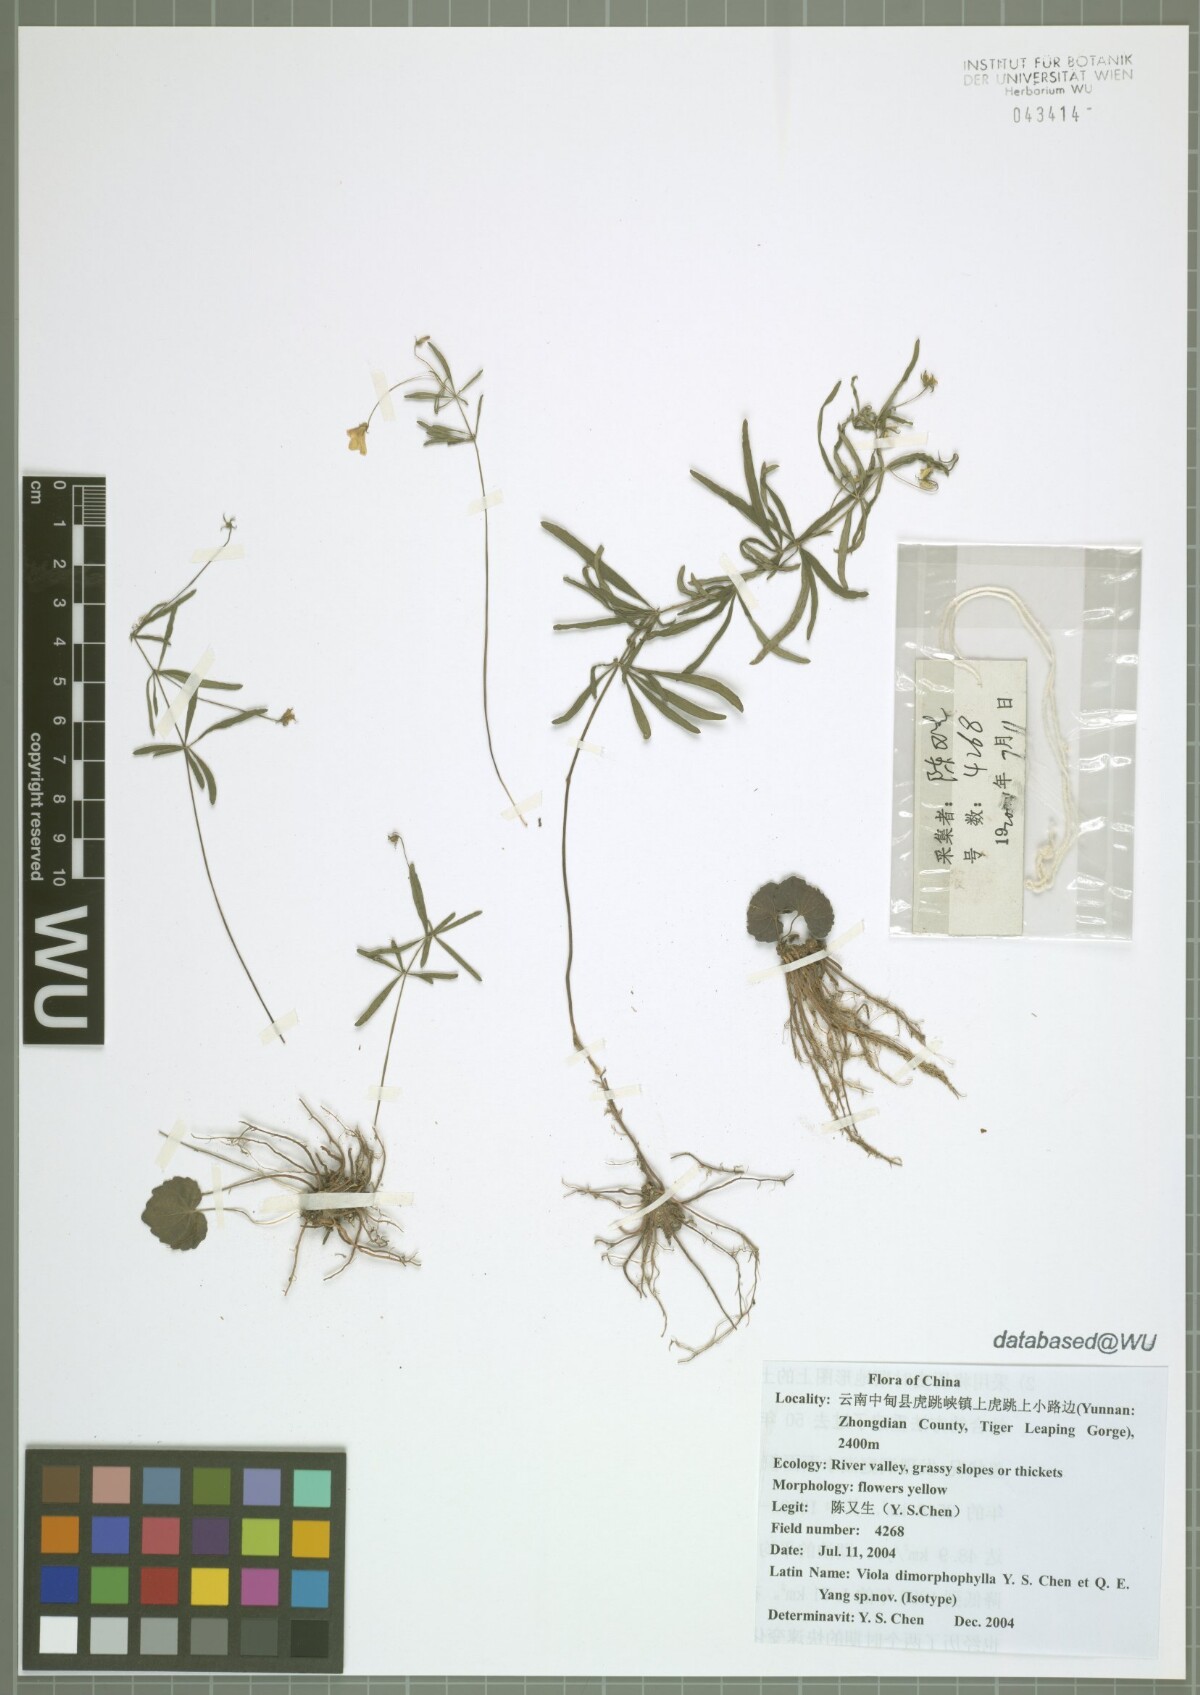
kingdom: Plantae
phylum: Tracheophyta
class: Magnoliopsida
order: Malpighiales
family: Violaceae
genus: Viola
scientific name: Viola dimorphophylla
